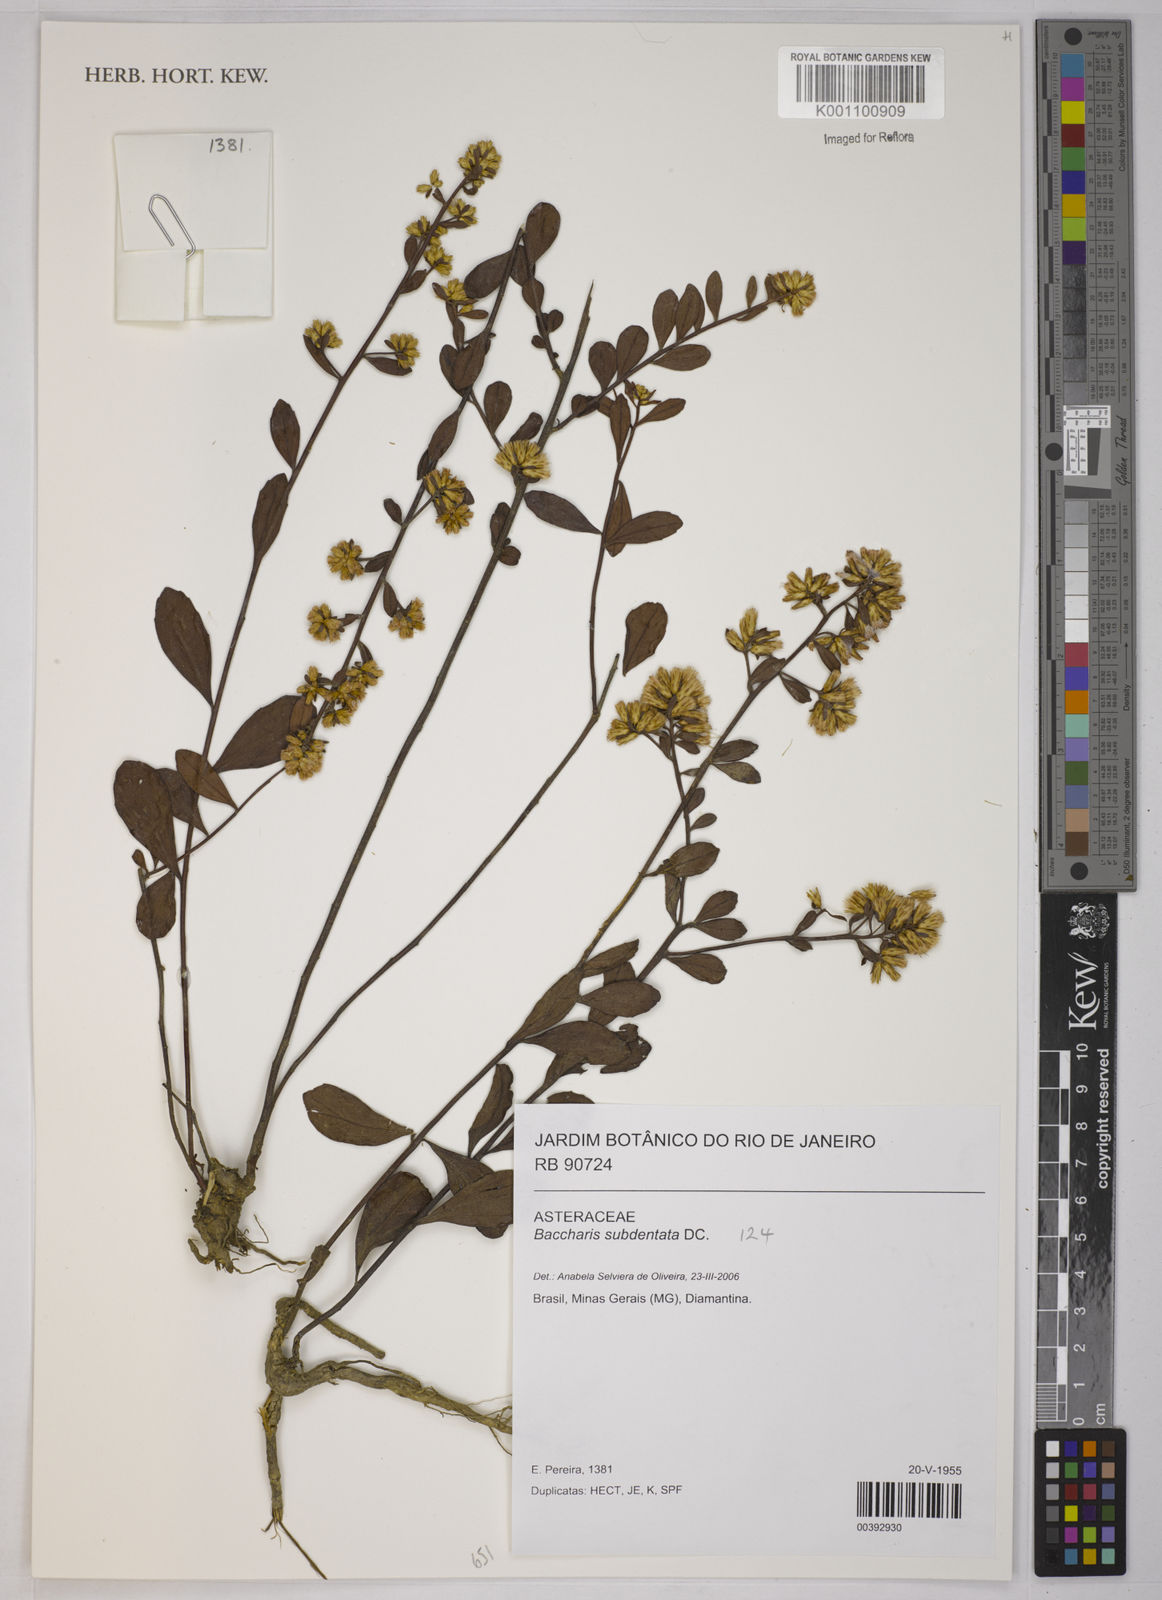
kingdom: Plantae
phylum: Tracheophyta
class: Magnoliopsida
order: Asterales
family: Asteraceae
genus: Baccharis
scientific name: Baccharis subdentata
